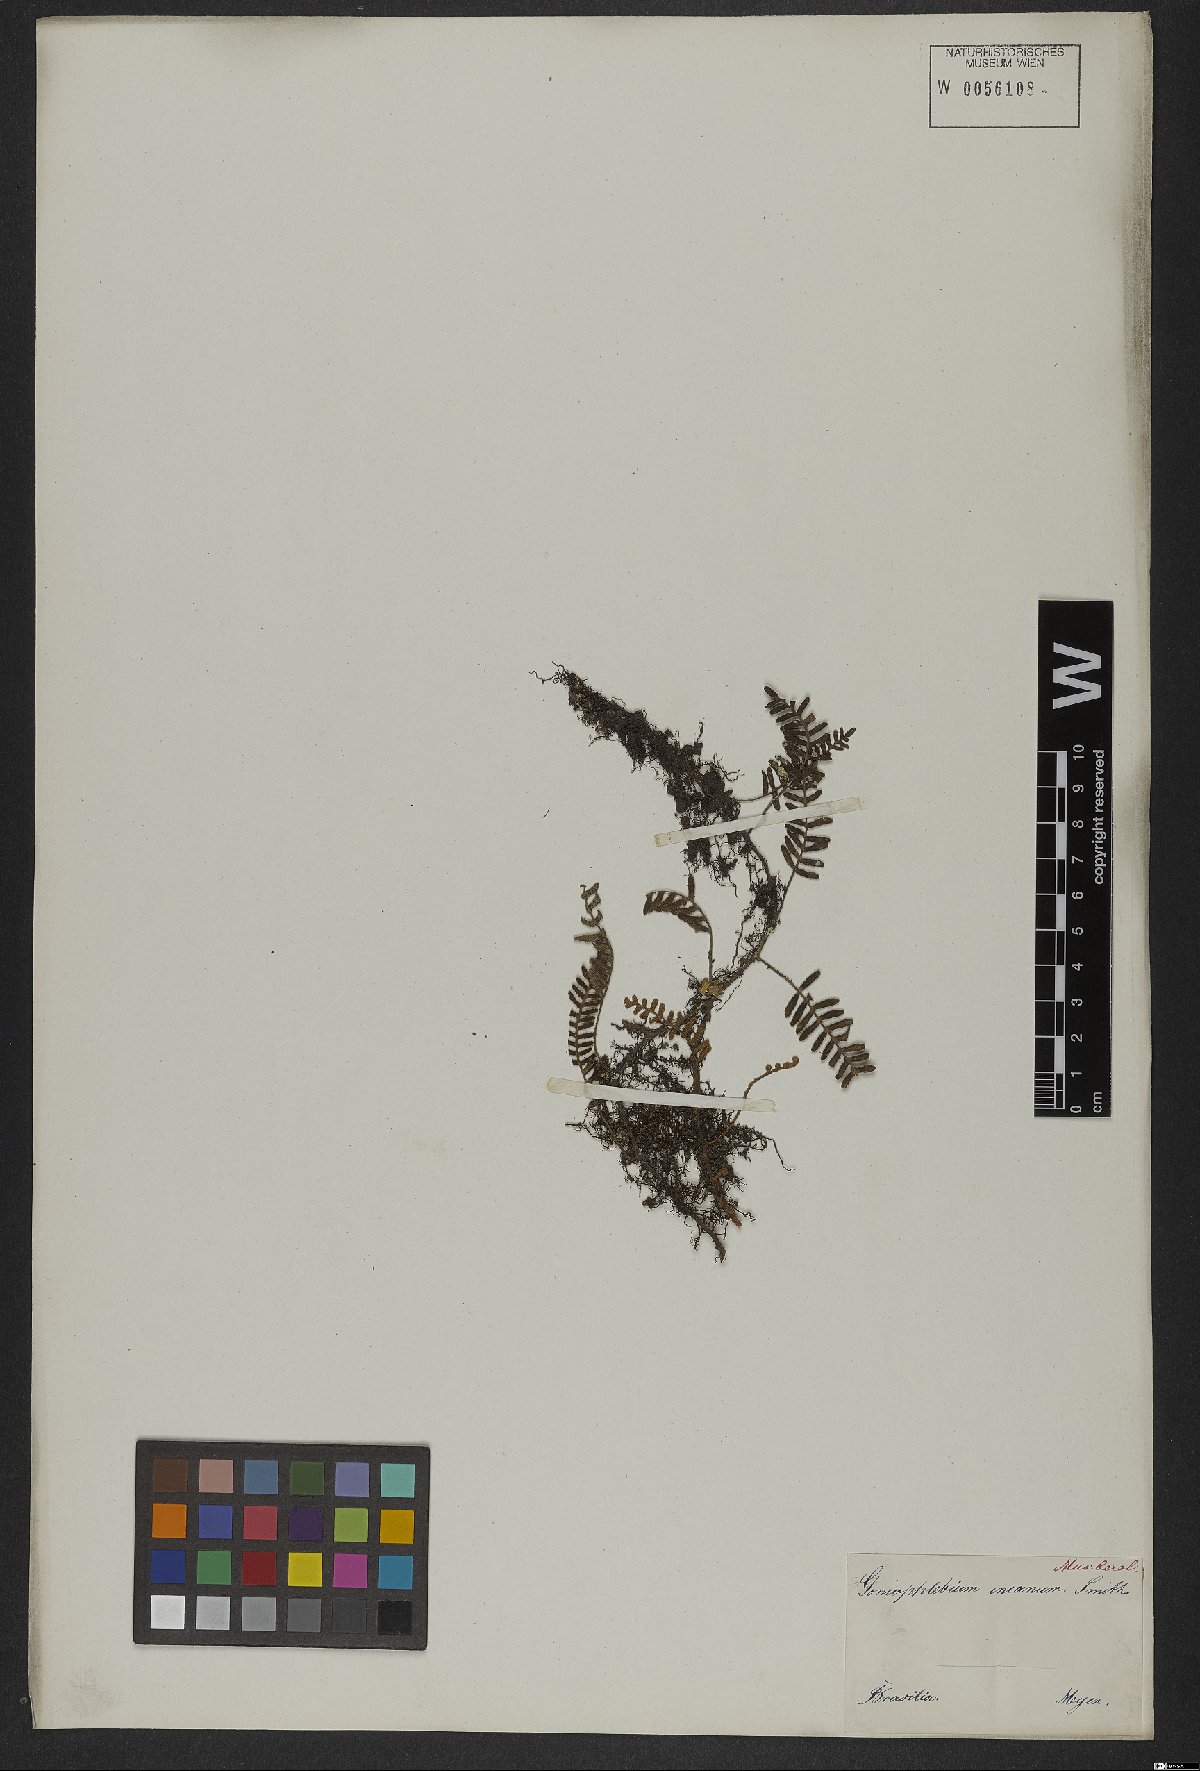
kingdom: Plantae
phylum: Tracheophyta
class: Polypodiopsida
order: Polypodiales
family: Polypodiaceae
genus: Pleopeltis
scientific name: Pleopeltis polypodioides
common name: Resurrection fern
